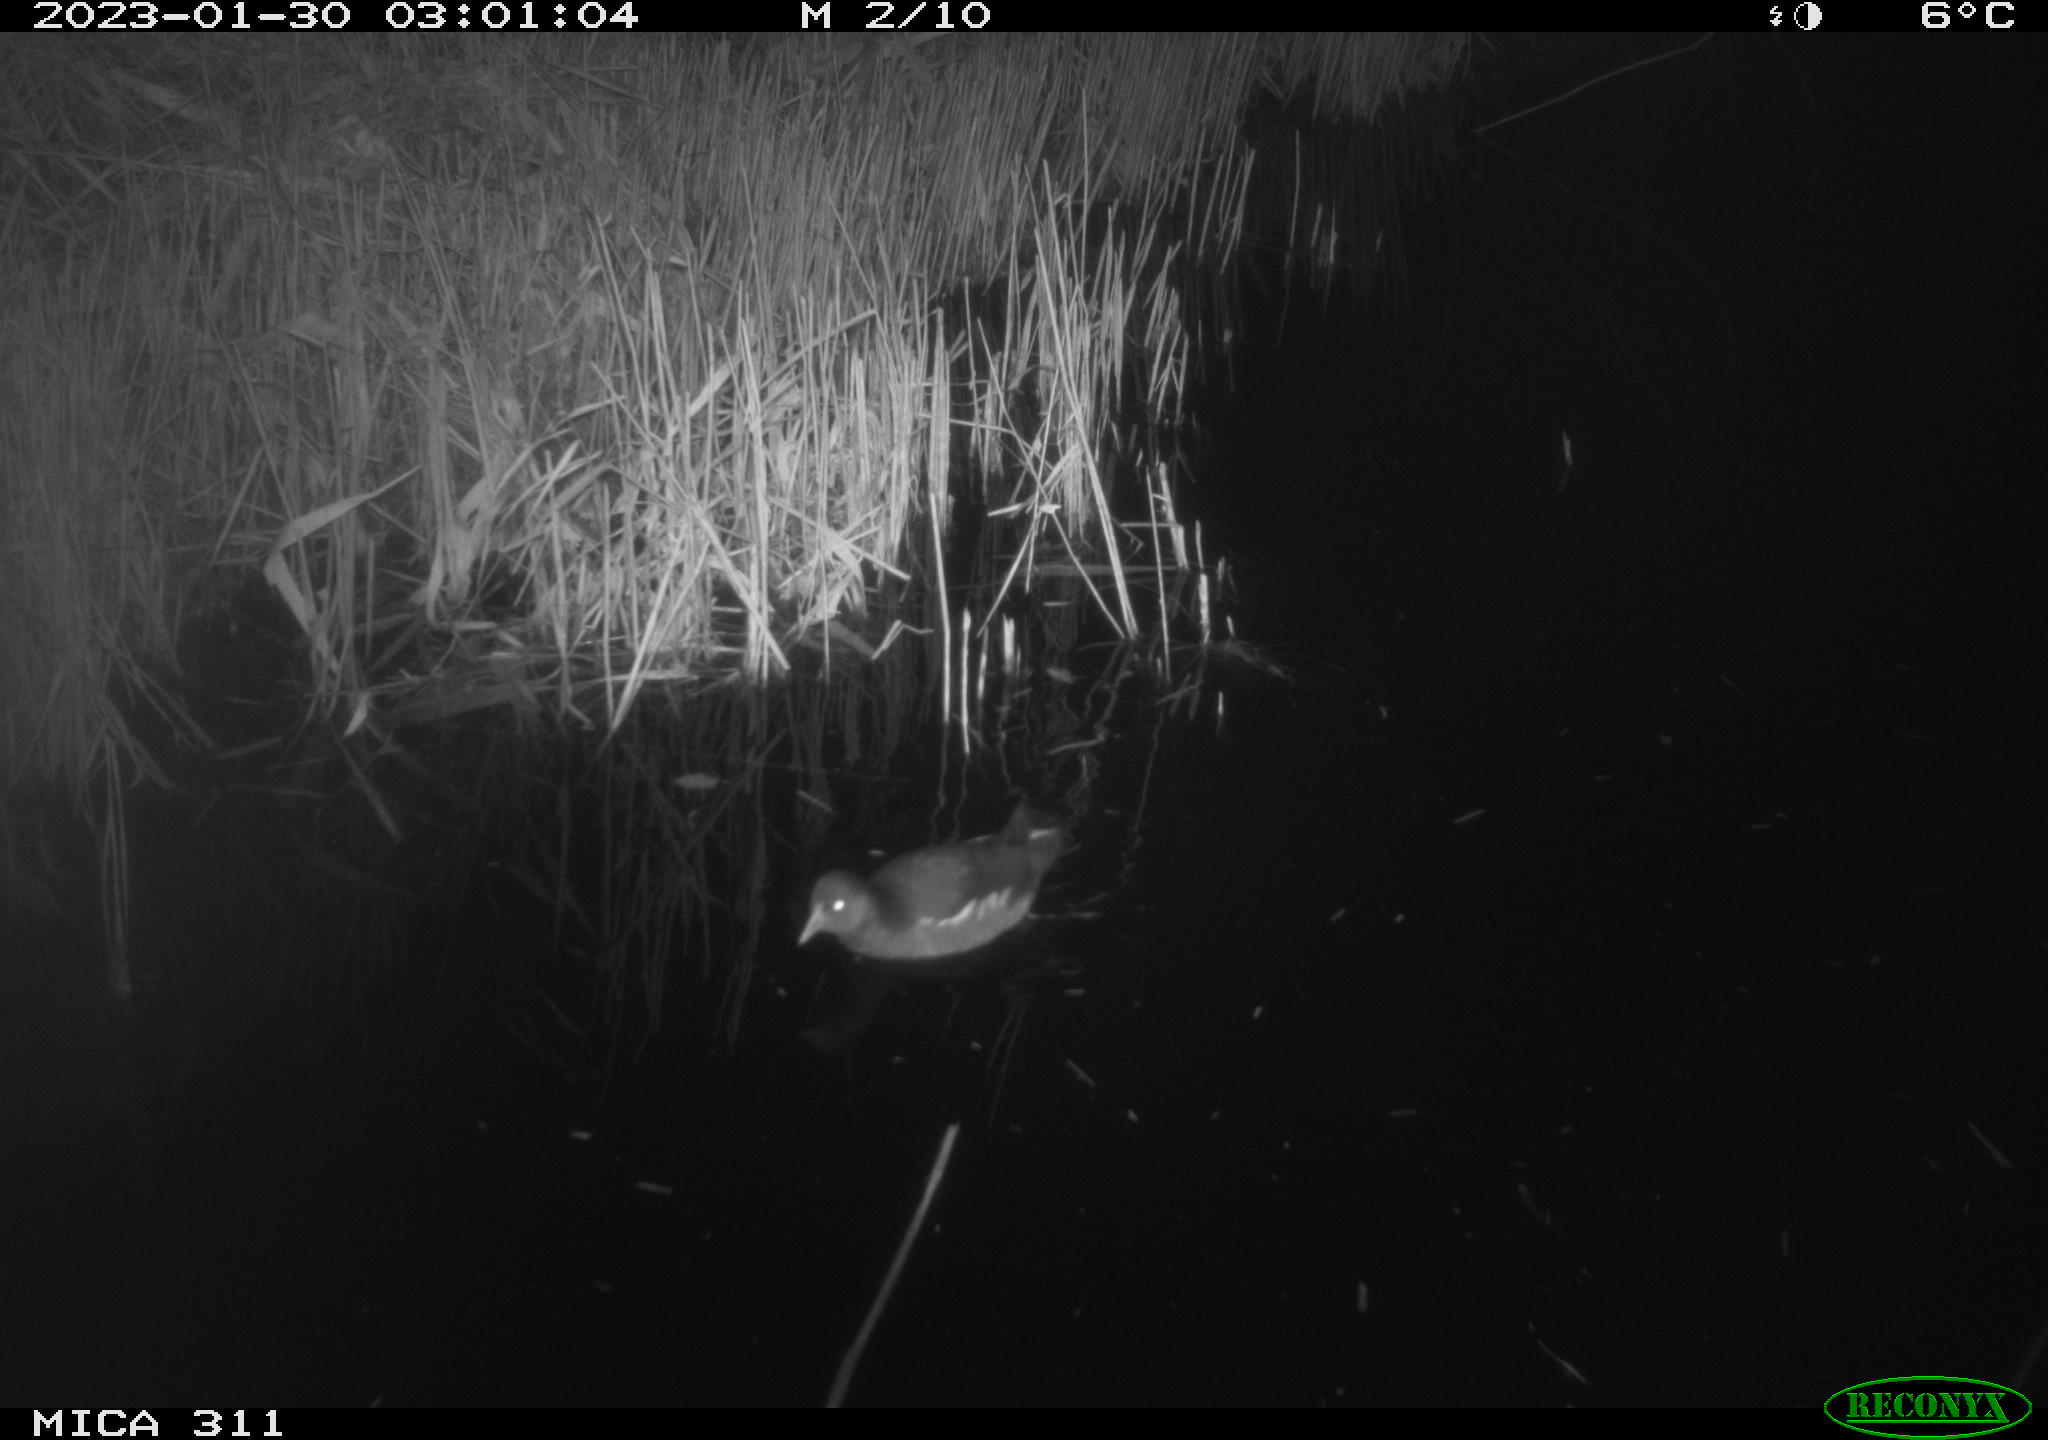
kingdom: Animalia
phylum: Chordata
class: Aves
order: Gruiformes
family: Rallidae
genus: Gallinula
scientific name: Gallinula chloropus
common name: Common moorhen
